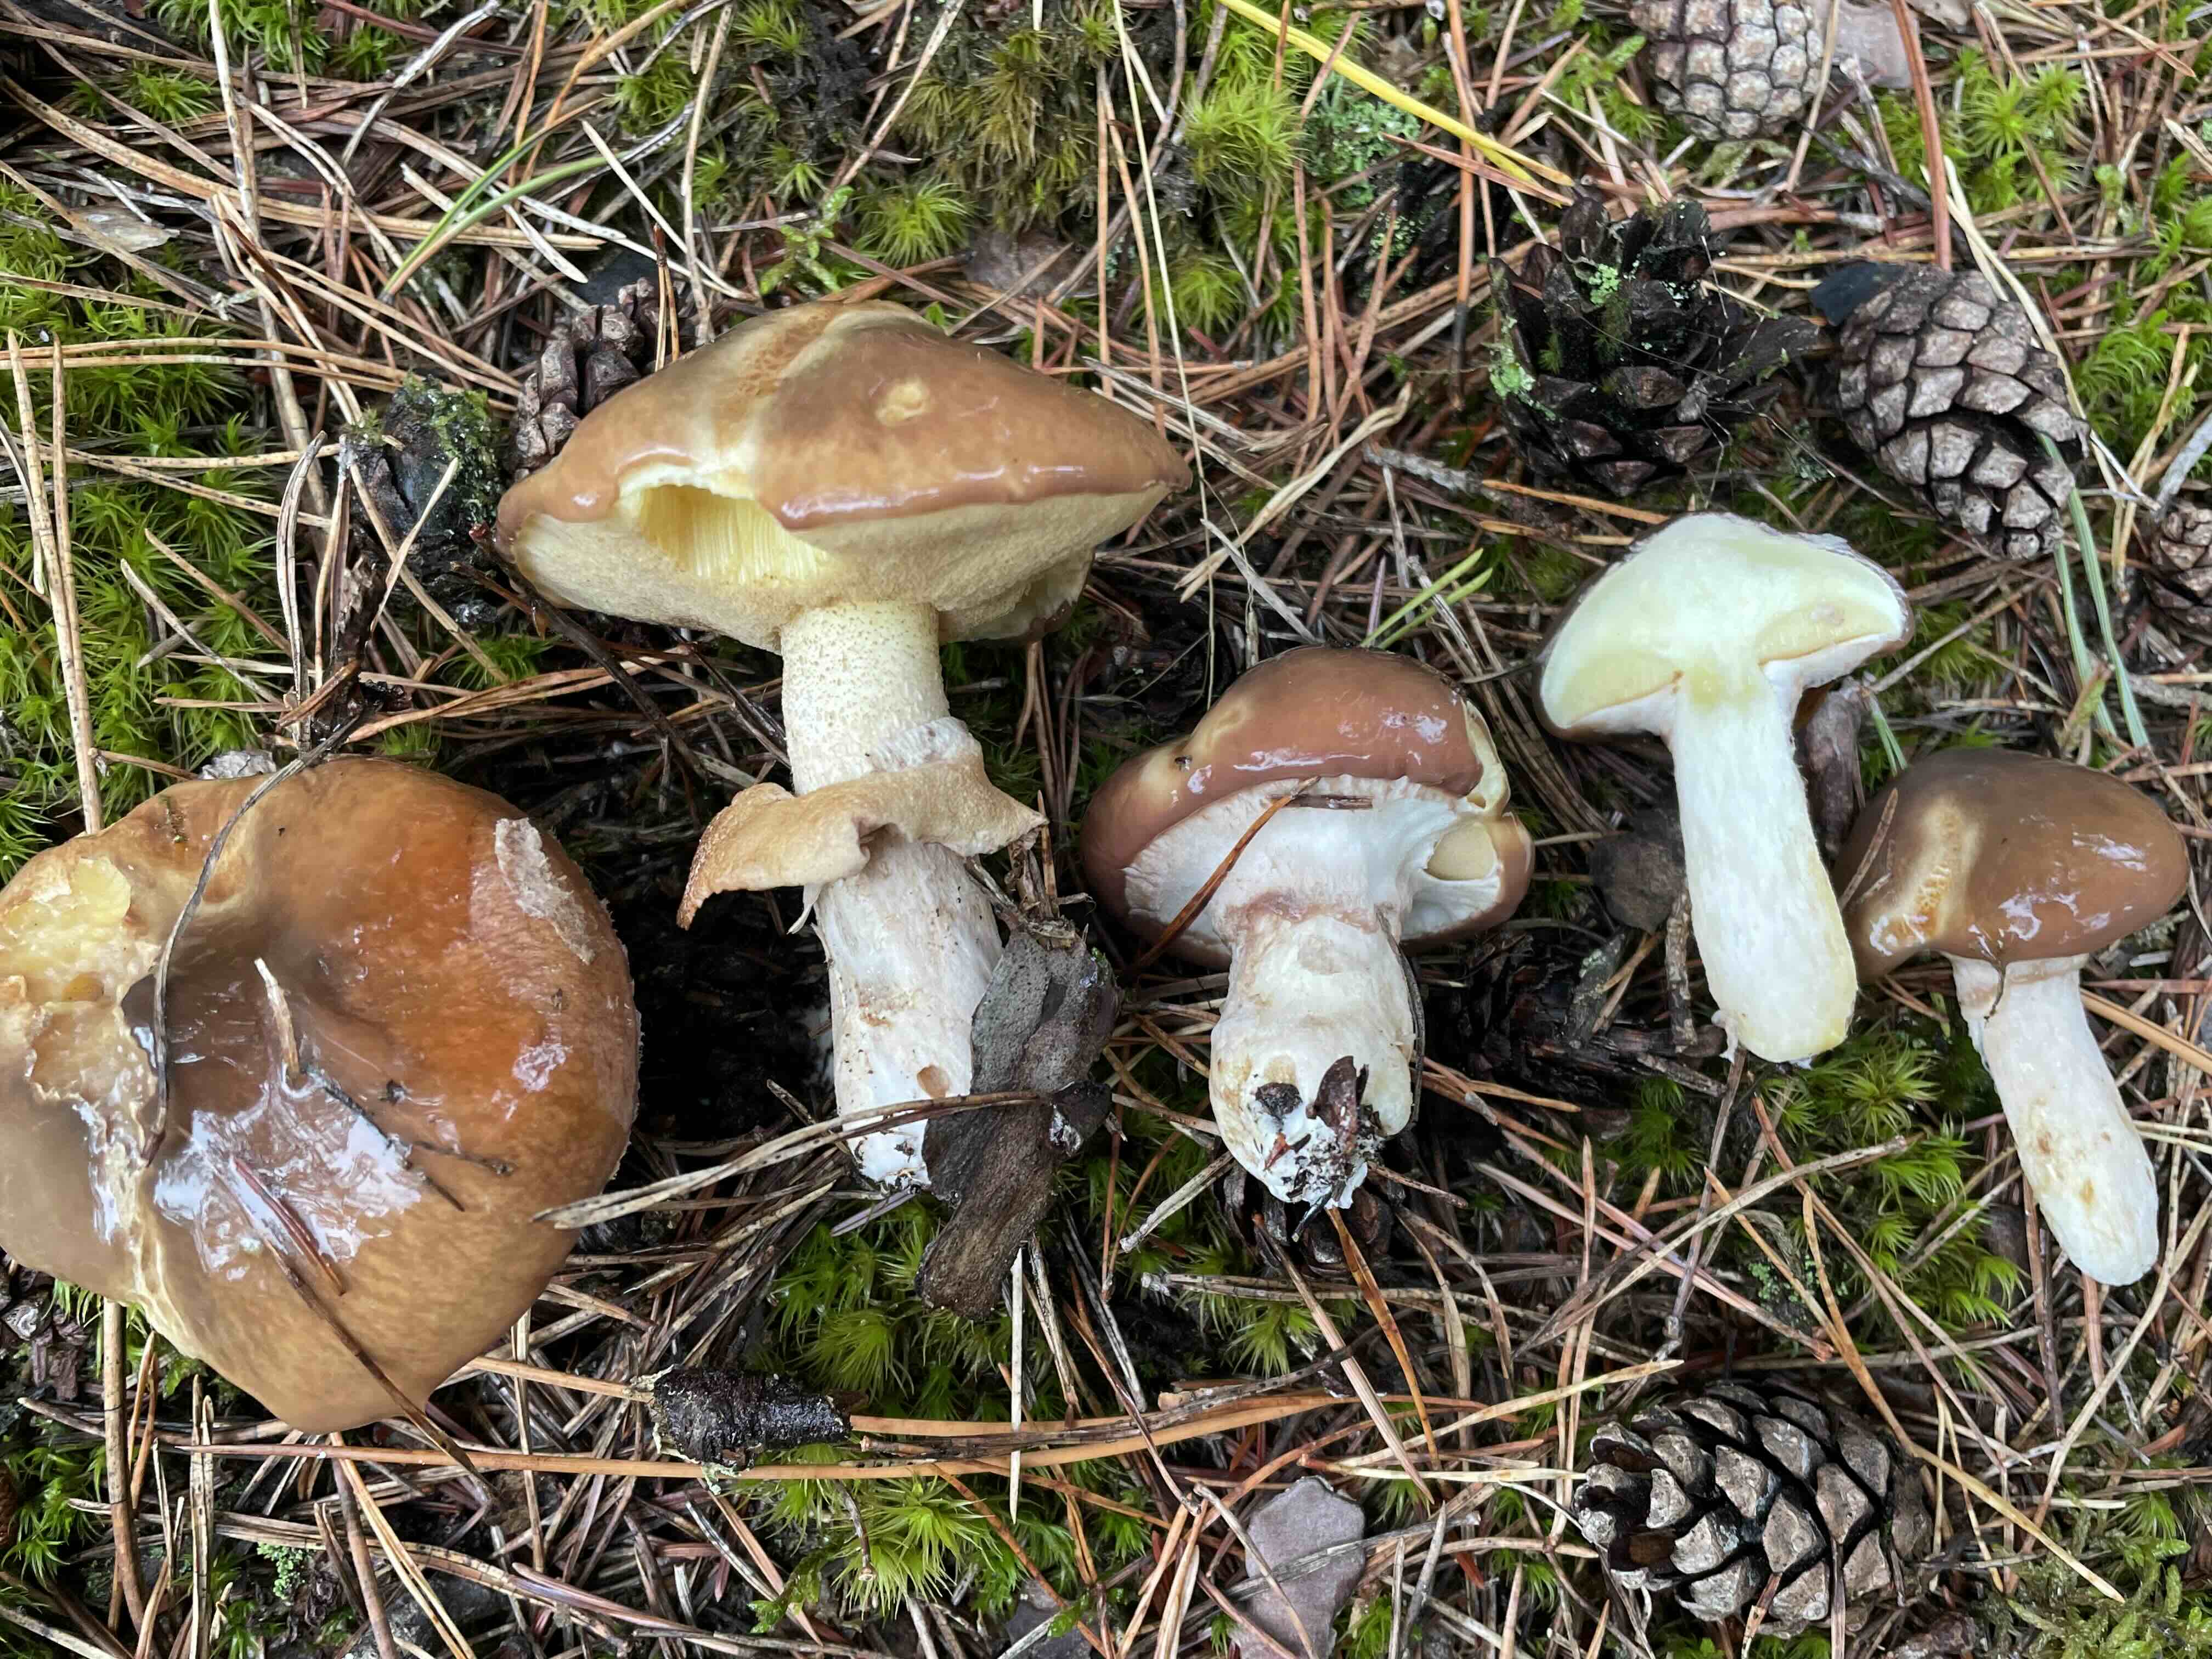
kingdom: Fungi
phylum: Basidiomycota
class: Agaricomycetes
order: Boletales
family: Suillaceae
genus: Suillus
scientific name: Suillus luteus
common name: brungul slimrørhat
